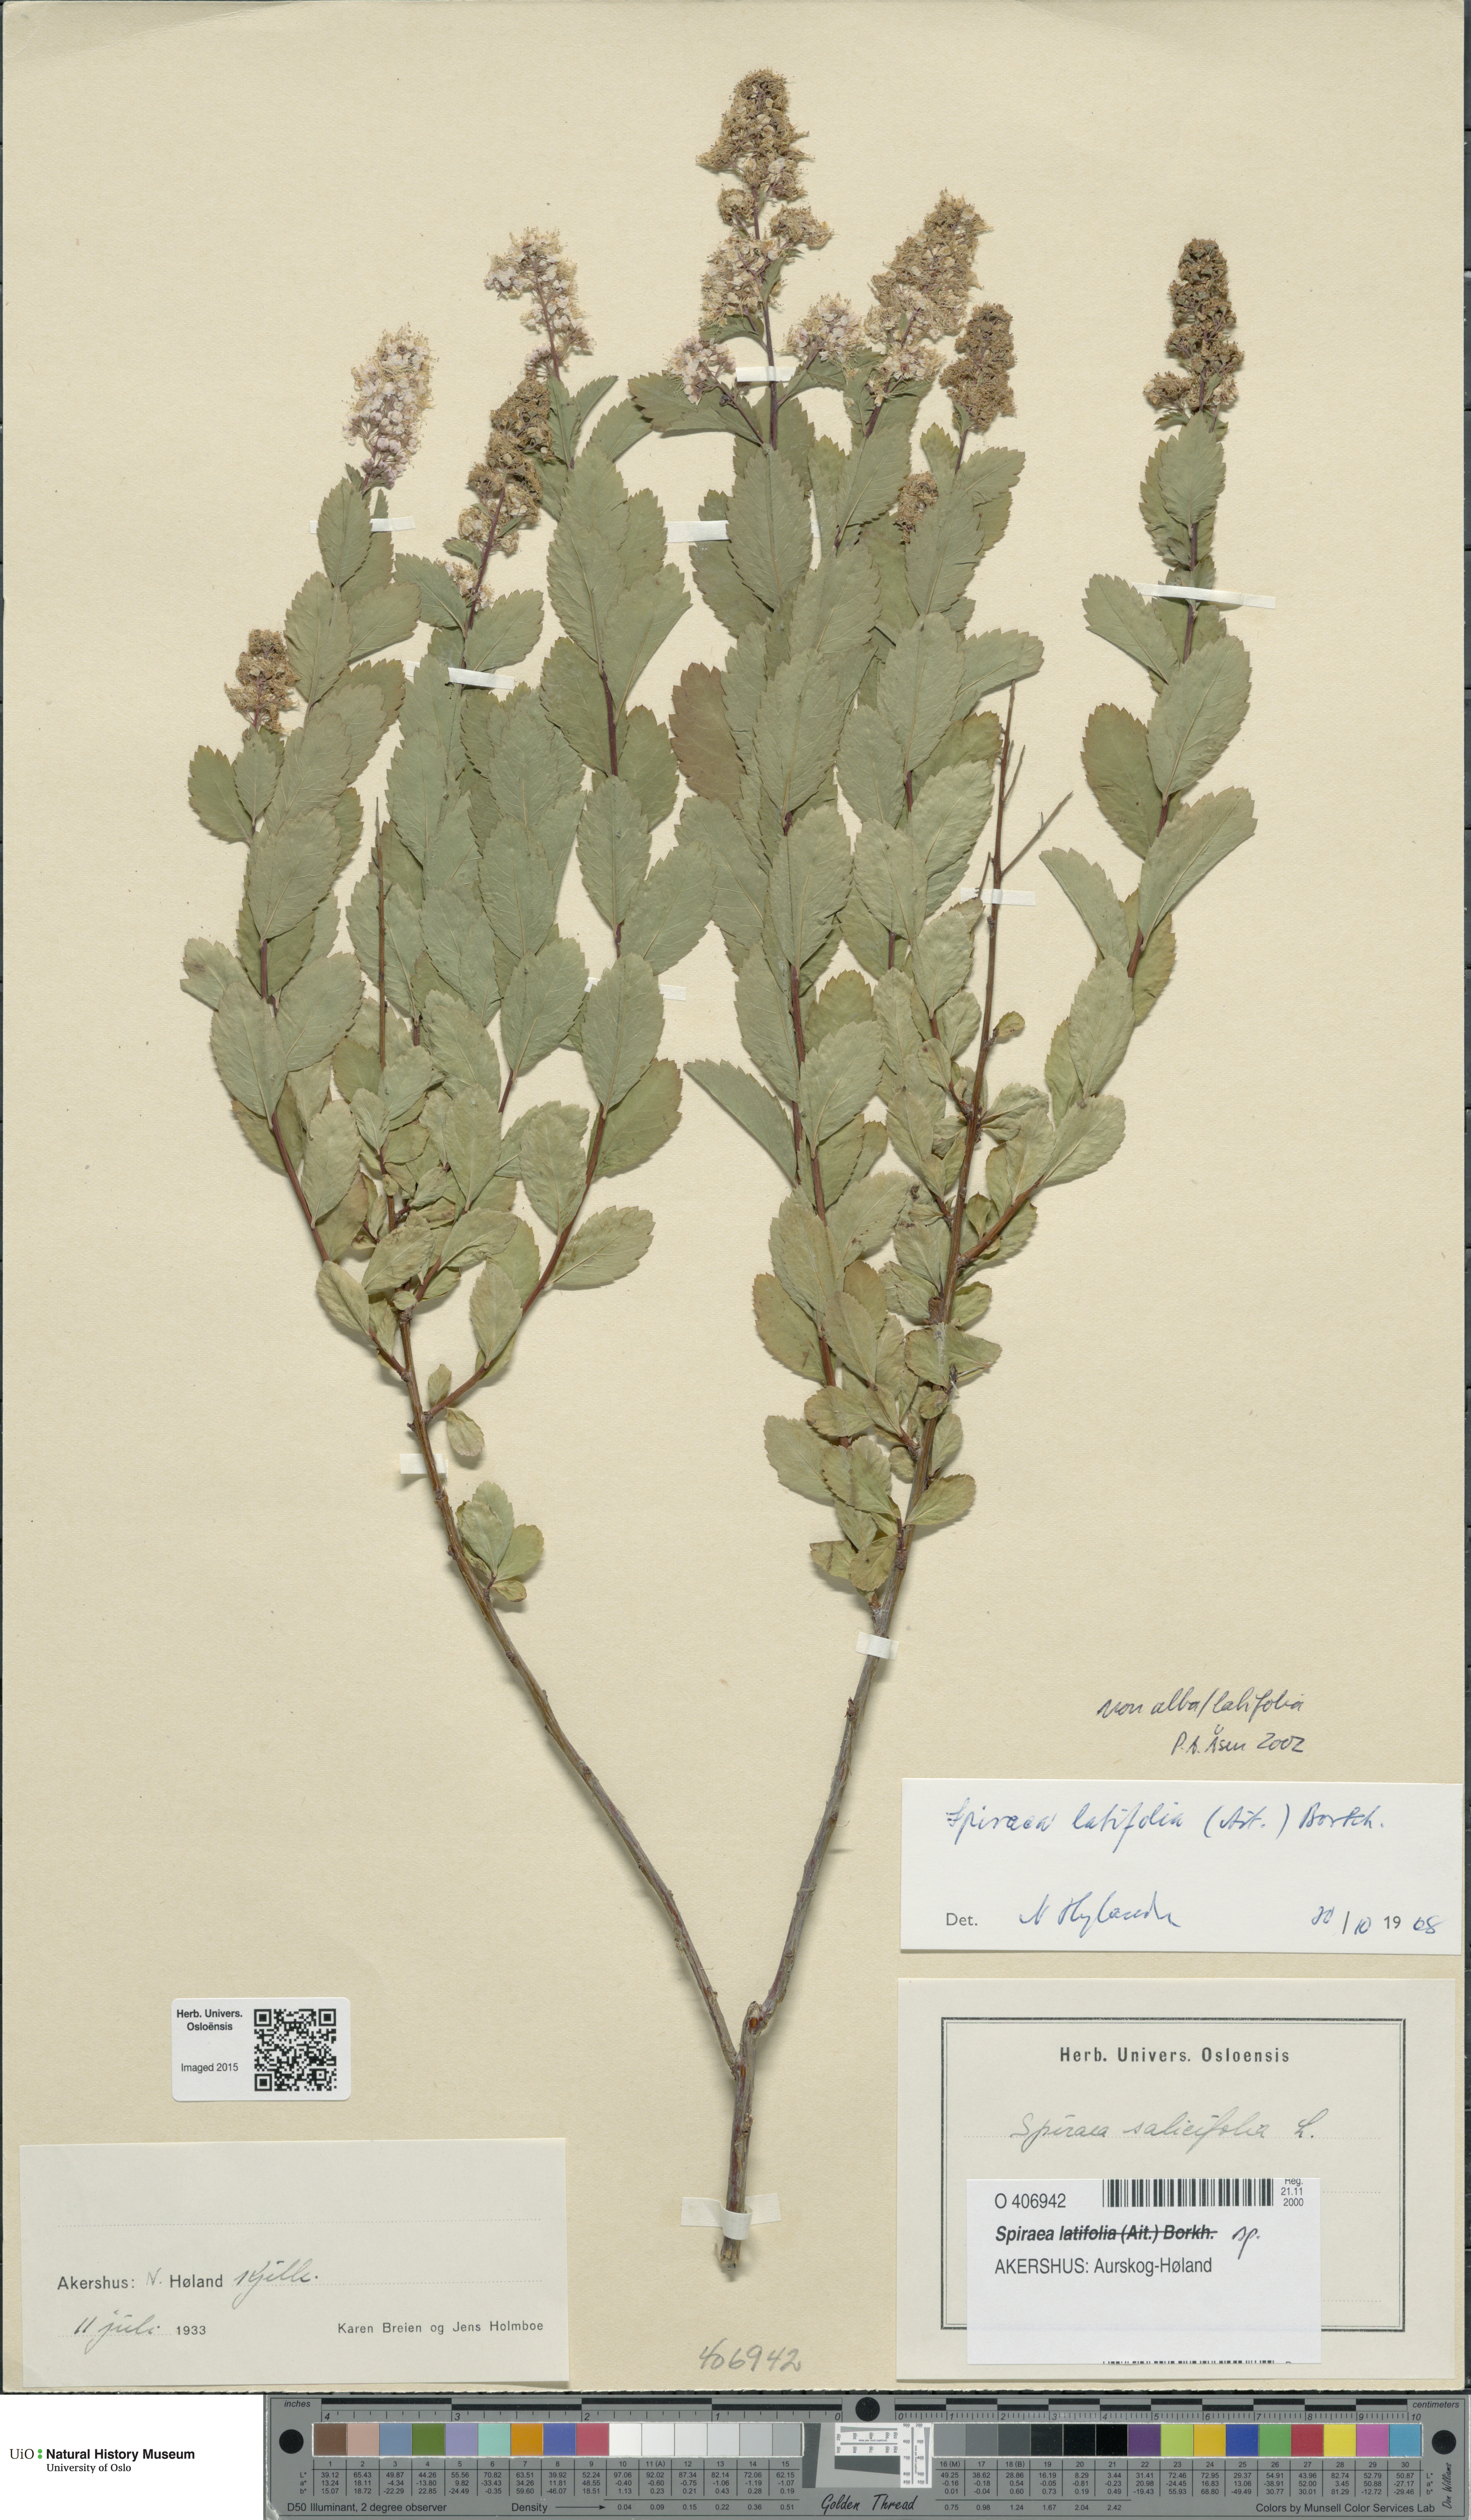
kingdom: Plantae
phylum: Tracheophyta
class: Magnoliopsida
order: Rosales
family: Rosaceae
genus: Spiraea
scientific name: Spiraea
